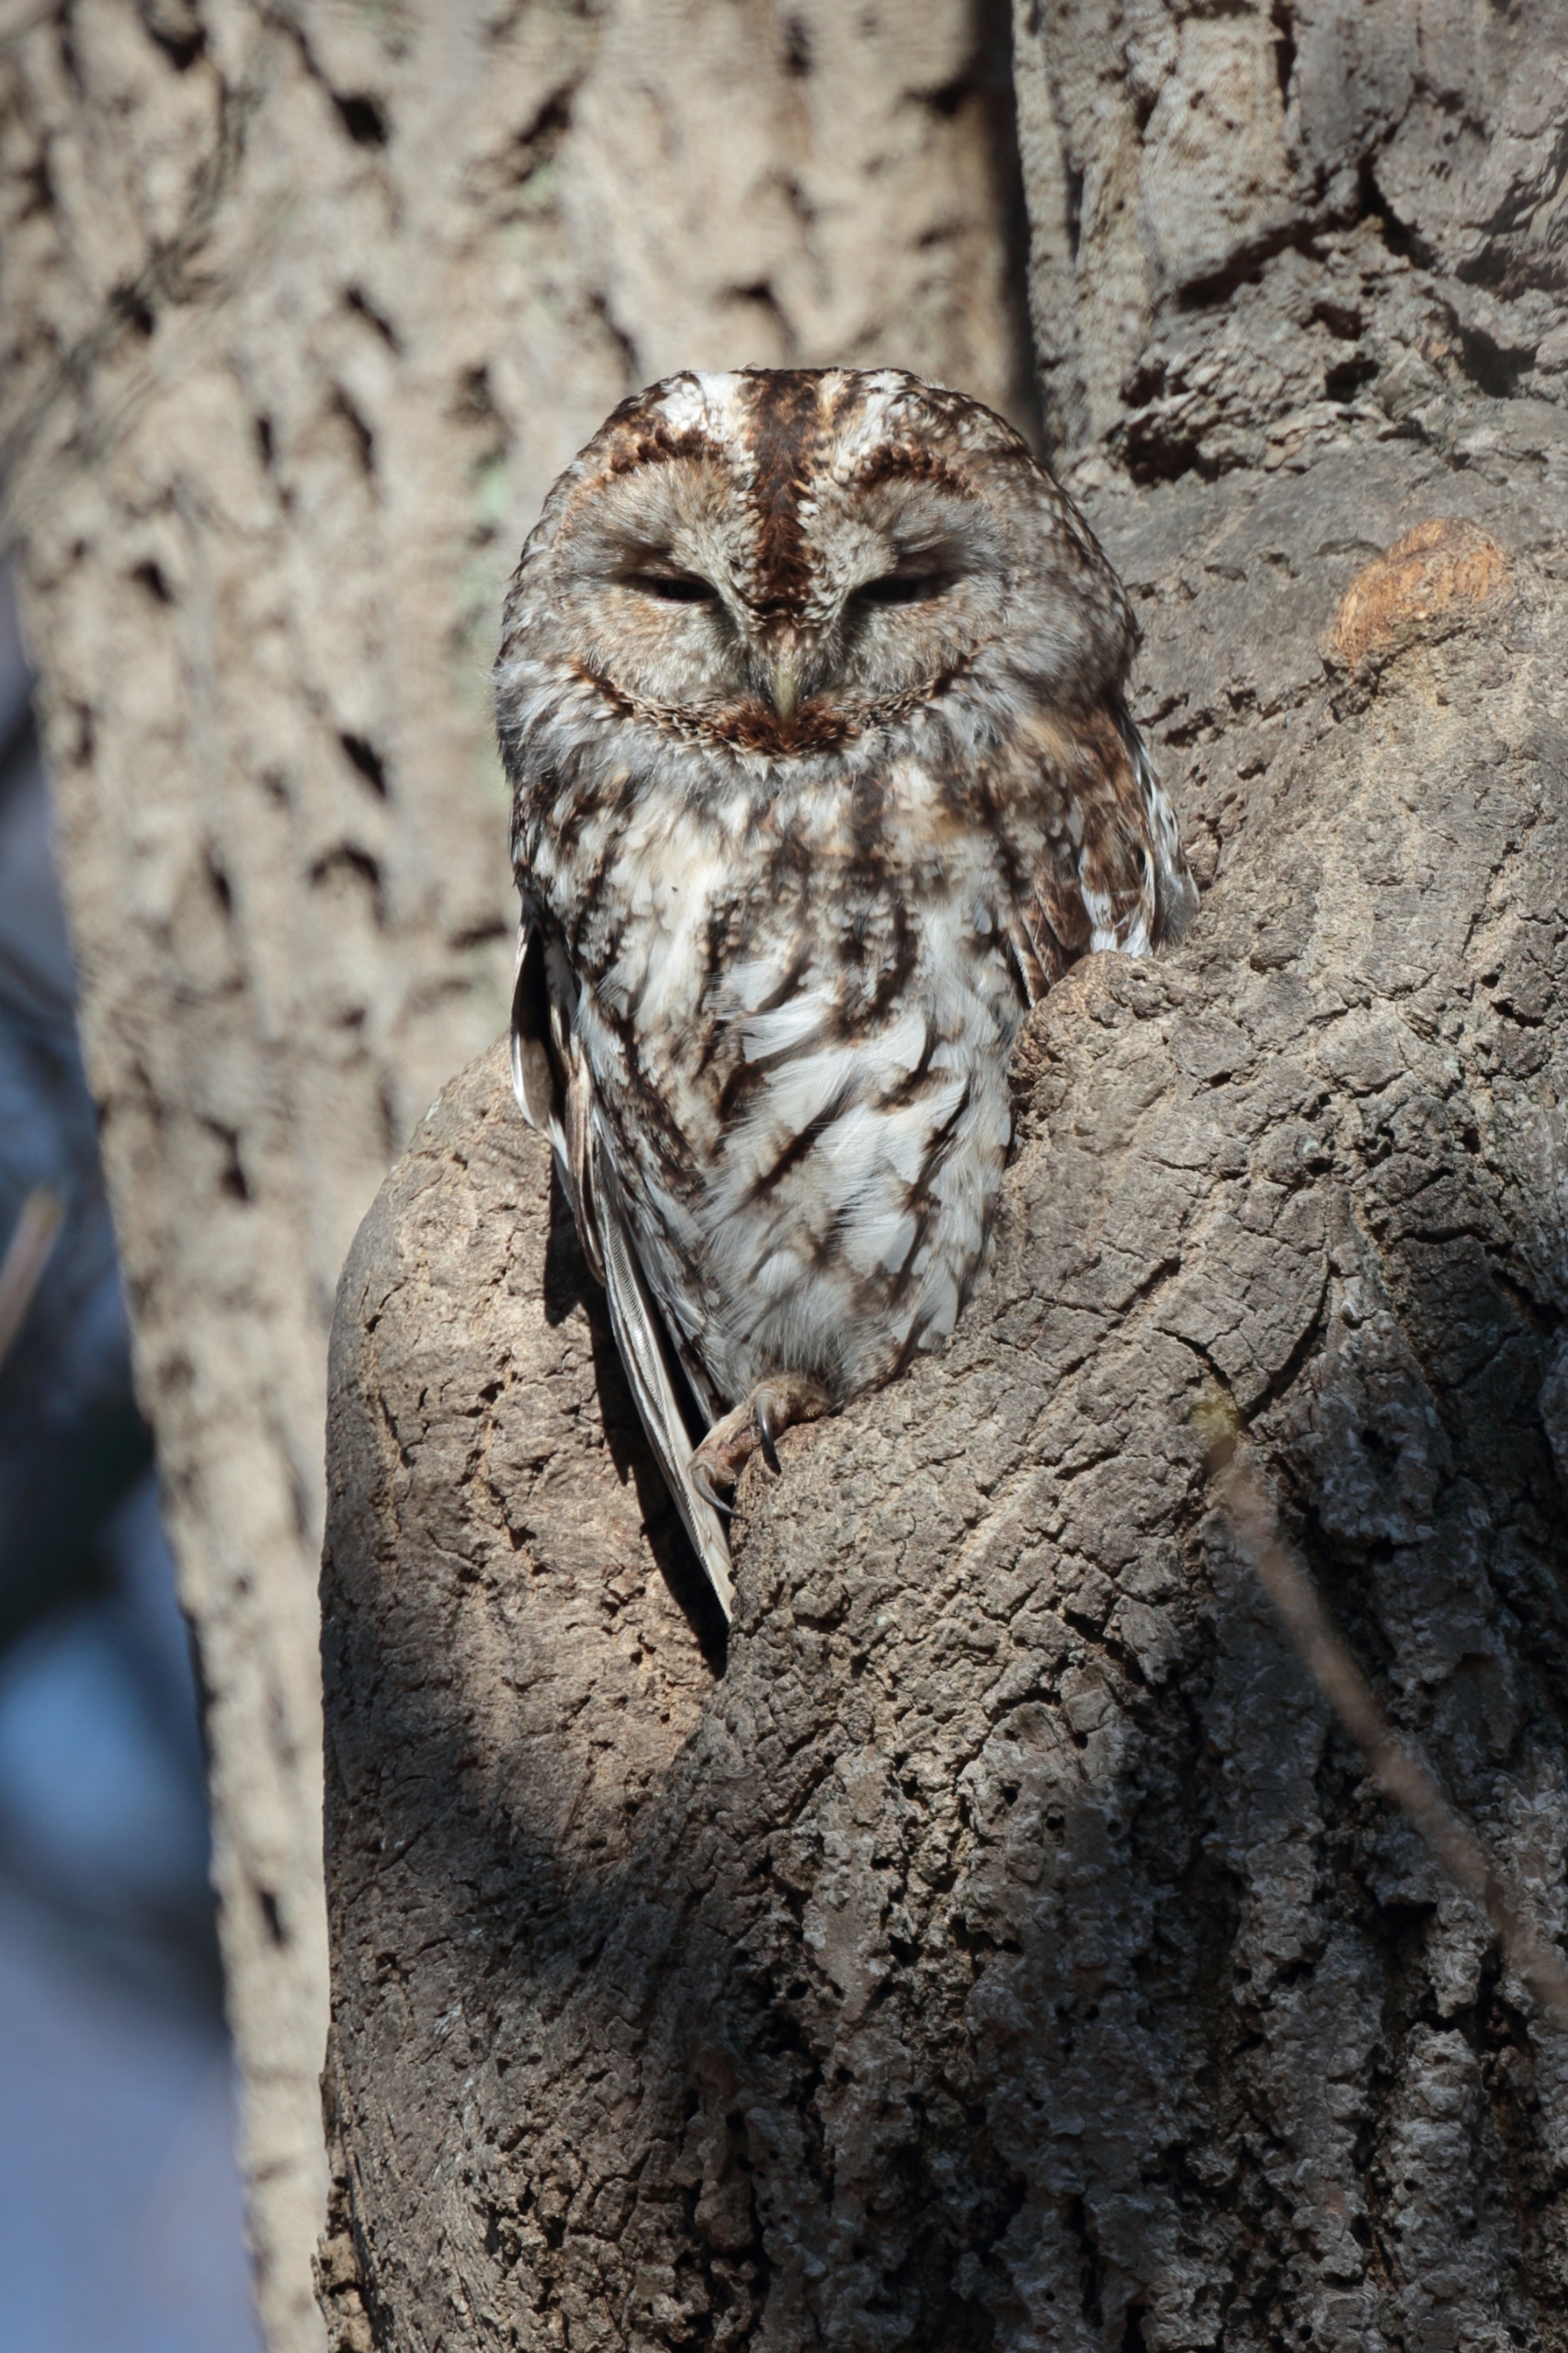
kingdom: Animalia
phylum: Chordata
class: Aves
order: Strigiformes
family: Strigidae
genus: Strix
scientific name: Strix aluco
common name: Natugle
